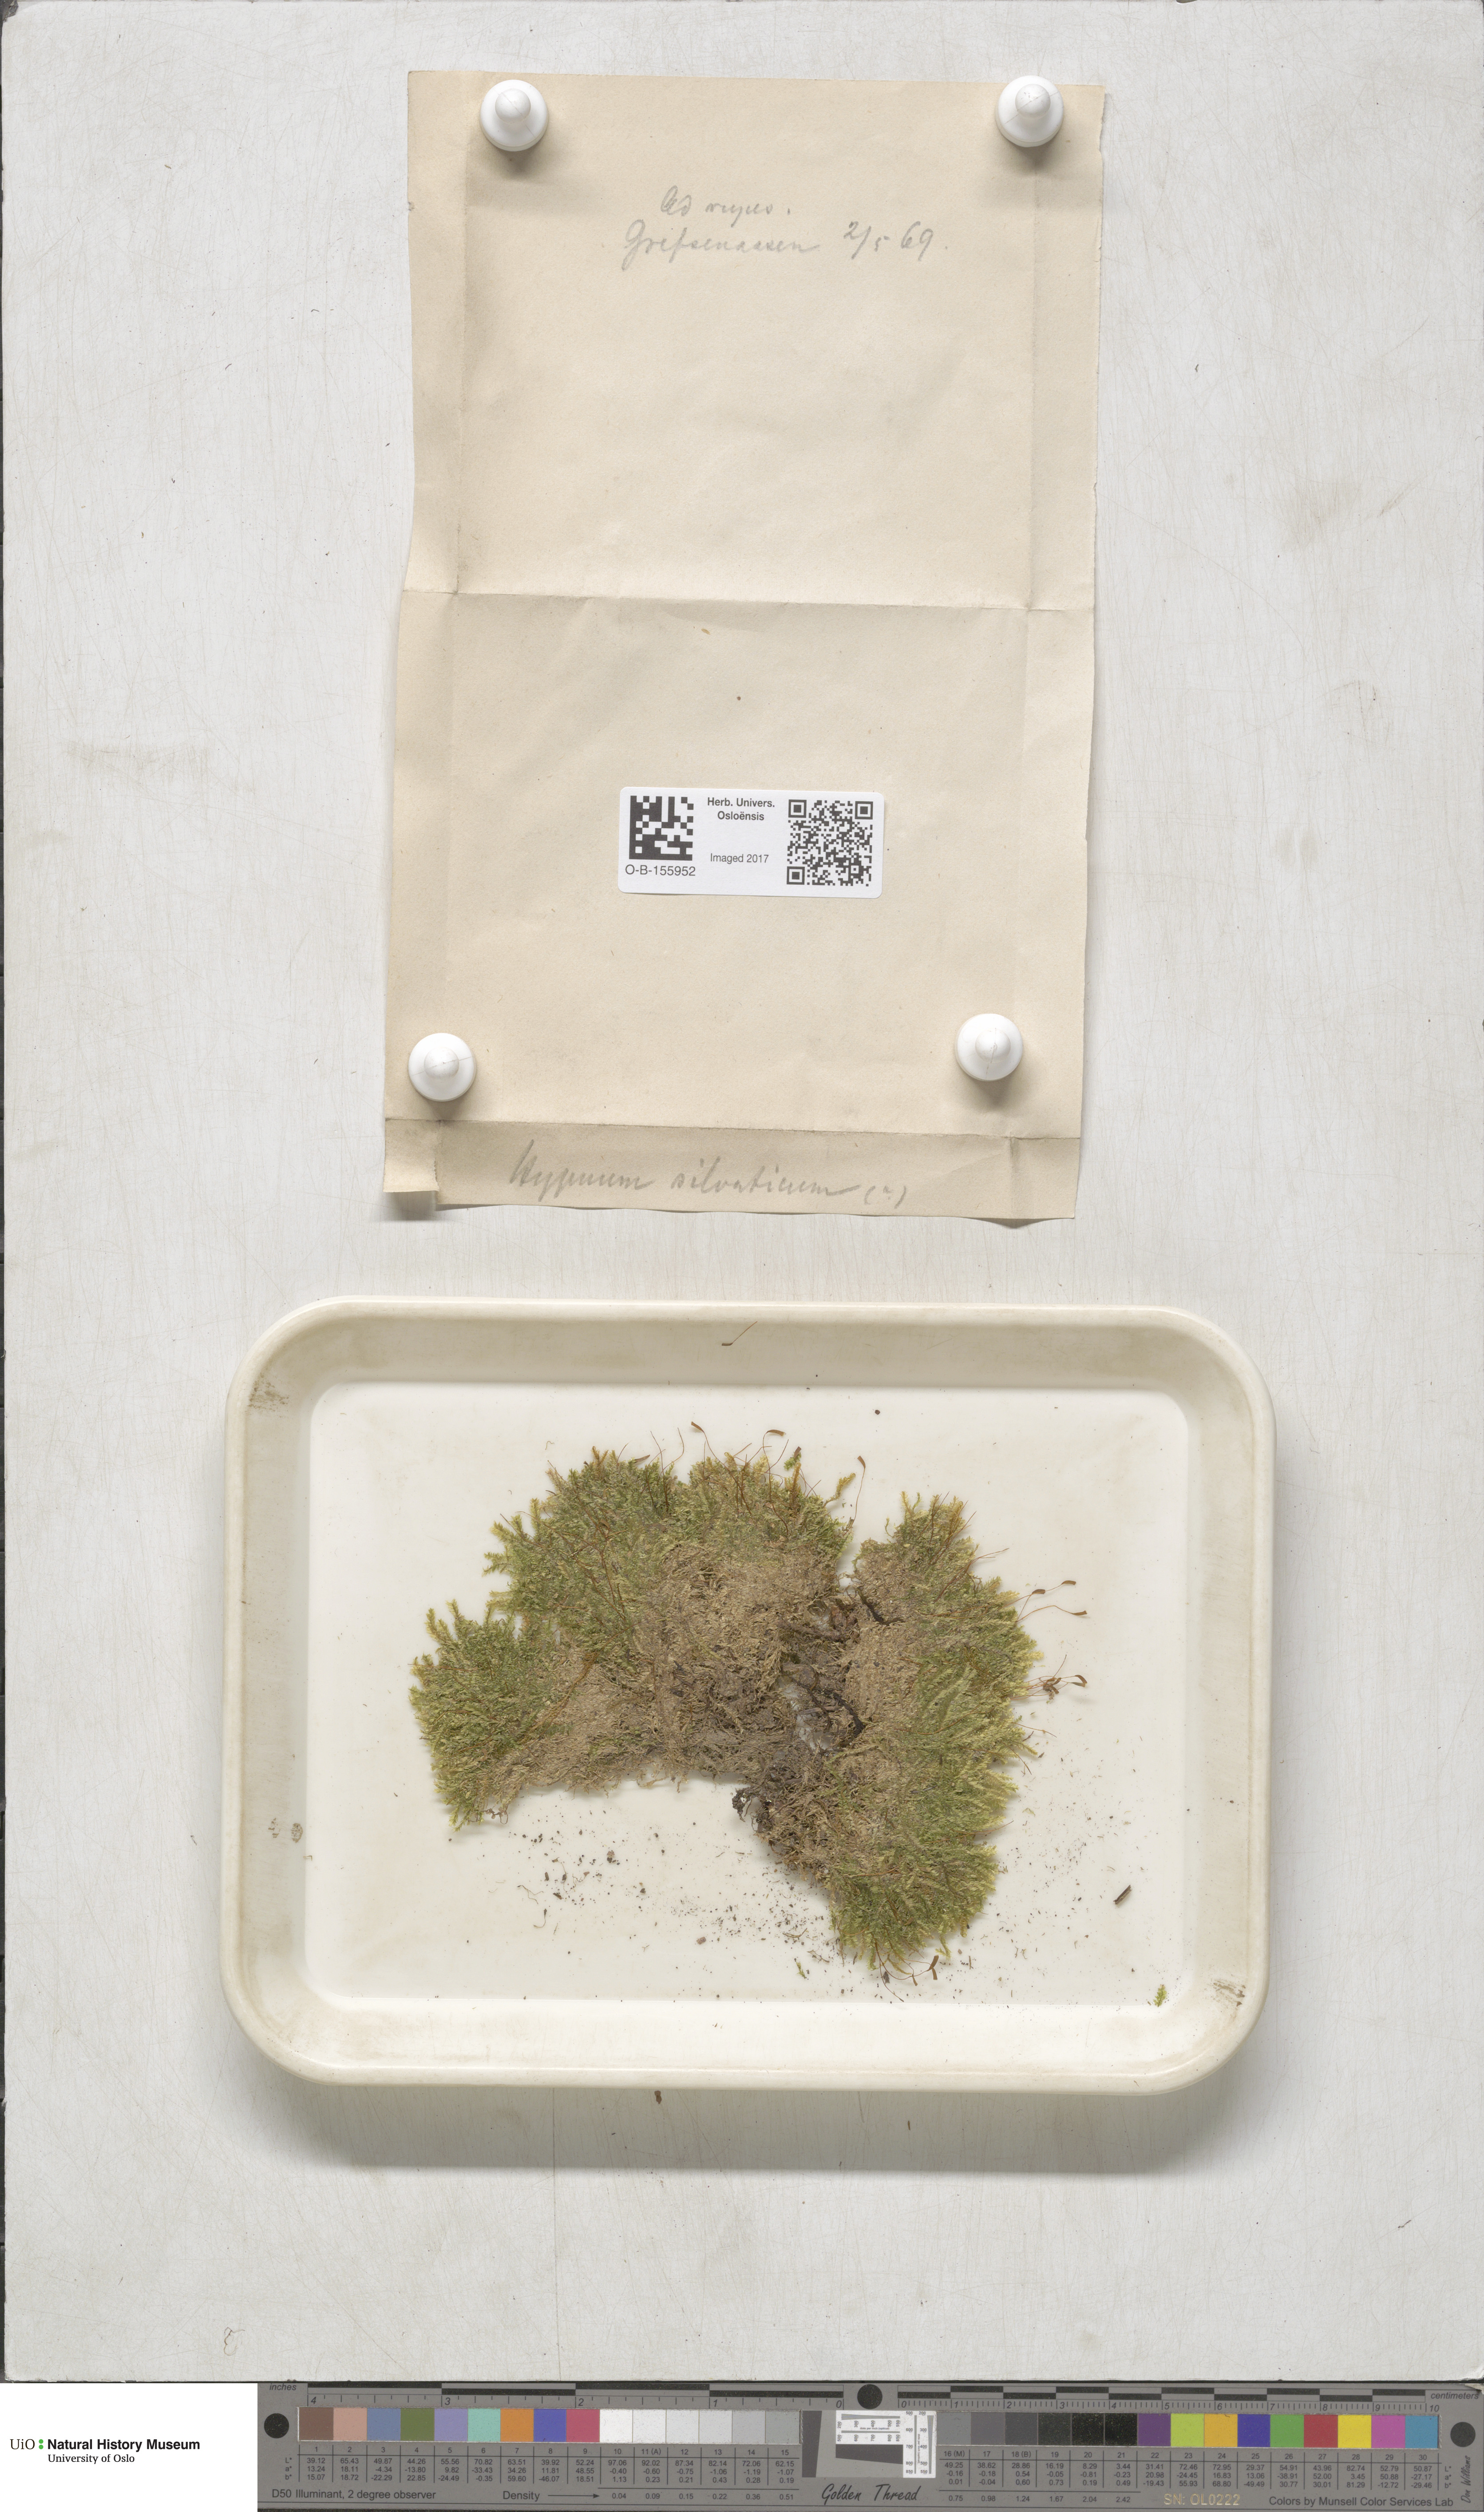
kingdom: Plantae
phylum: Bryophyta
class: Bryopsida
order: Hypnales
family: Plagiotheciaceae
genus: Plagiothecium
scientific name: Plagiothecium nemorale
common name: Woodsy silk-moss
